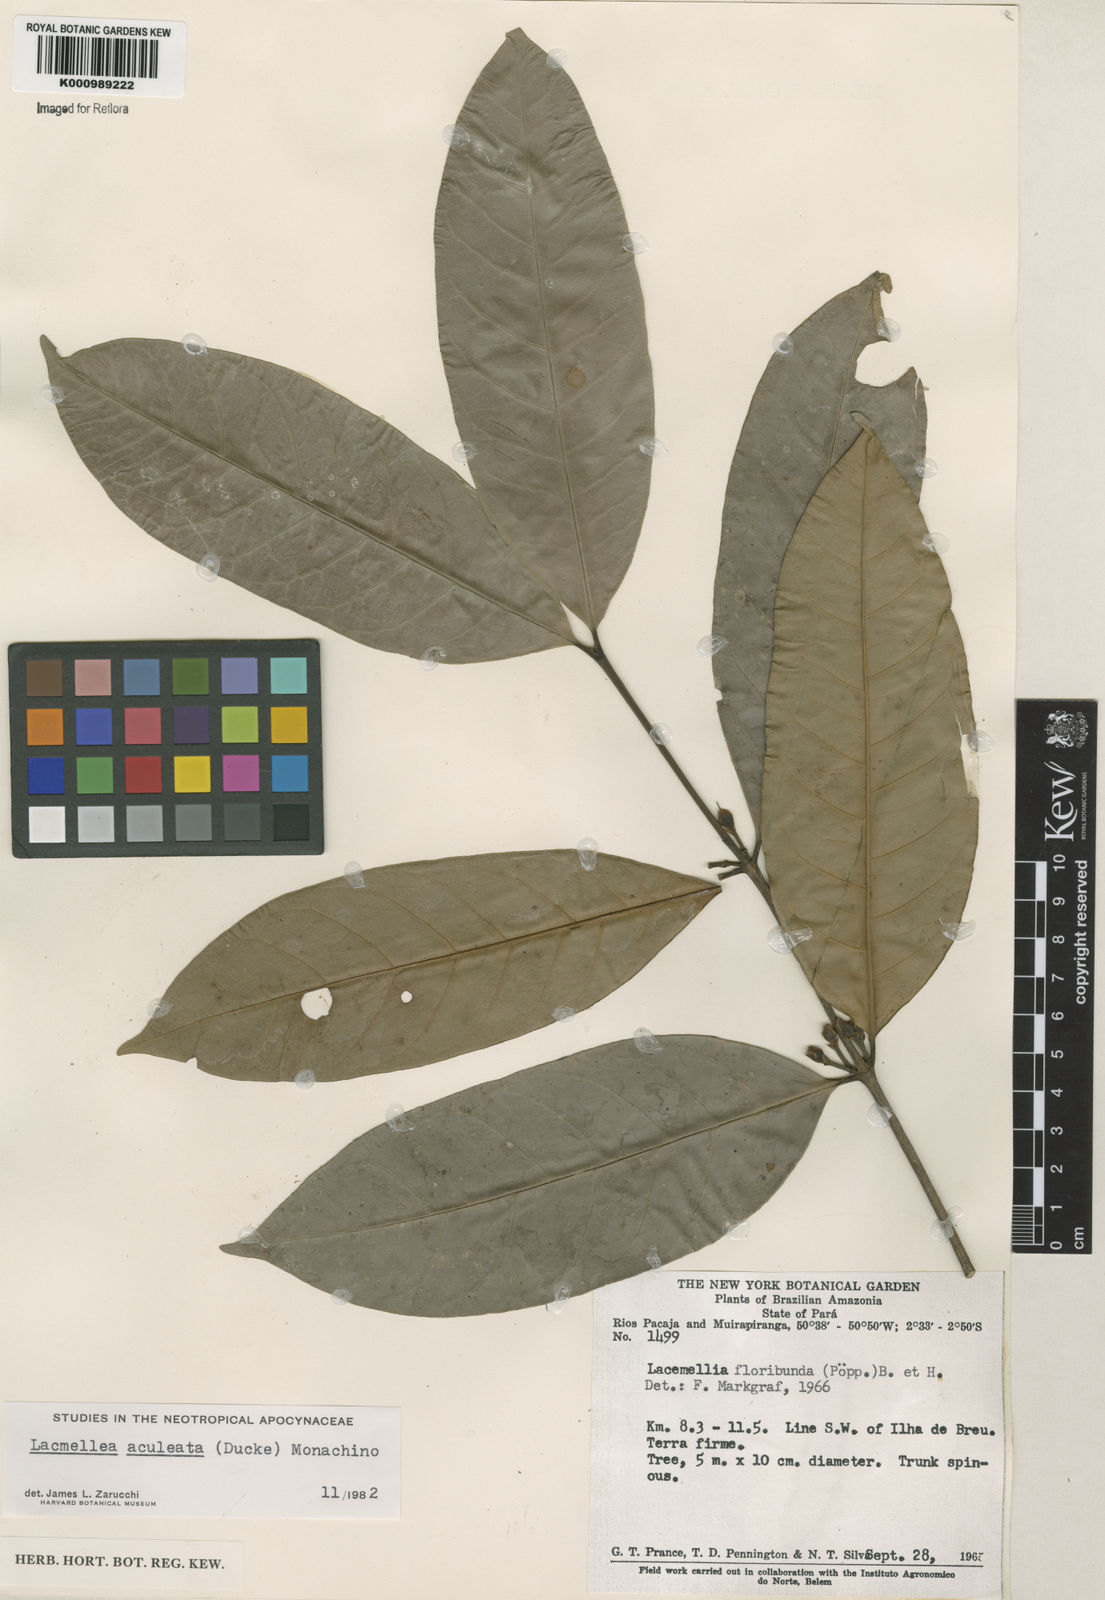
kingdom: Plantae
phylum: Tracheophyta
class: Magnoliopsida
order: Gentianales
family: Apocynaceae
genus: Lacmellea
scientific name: Lacmellea floribunda
